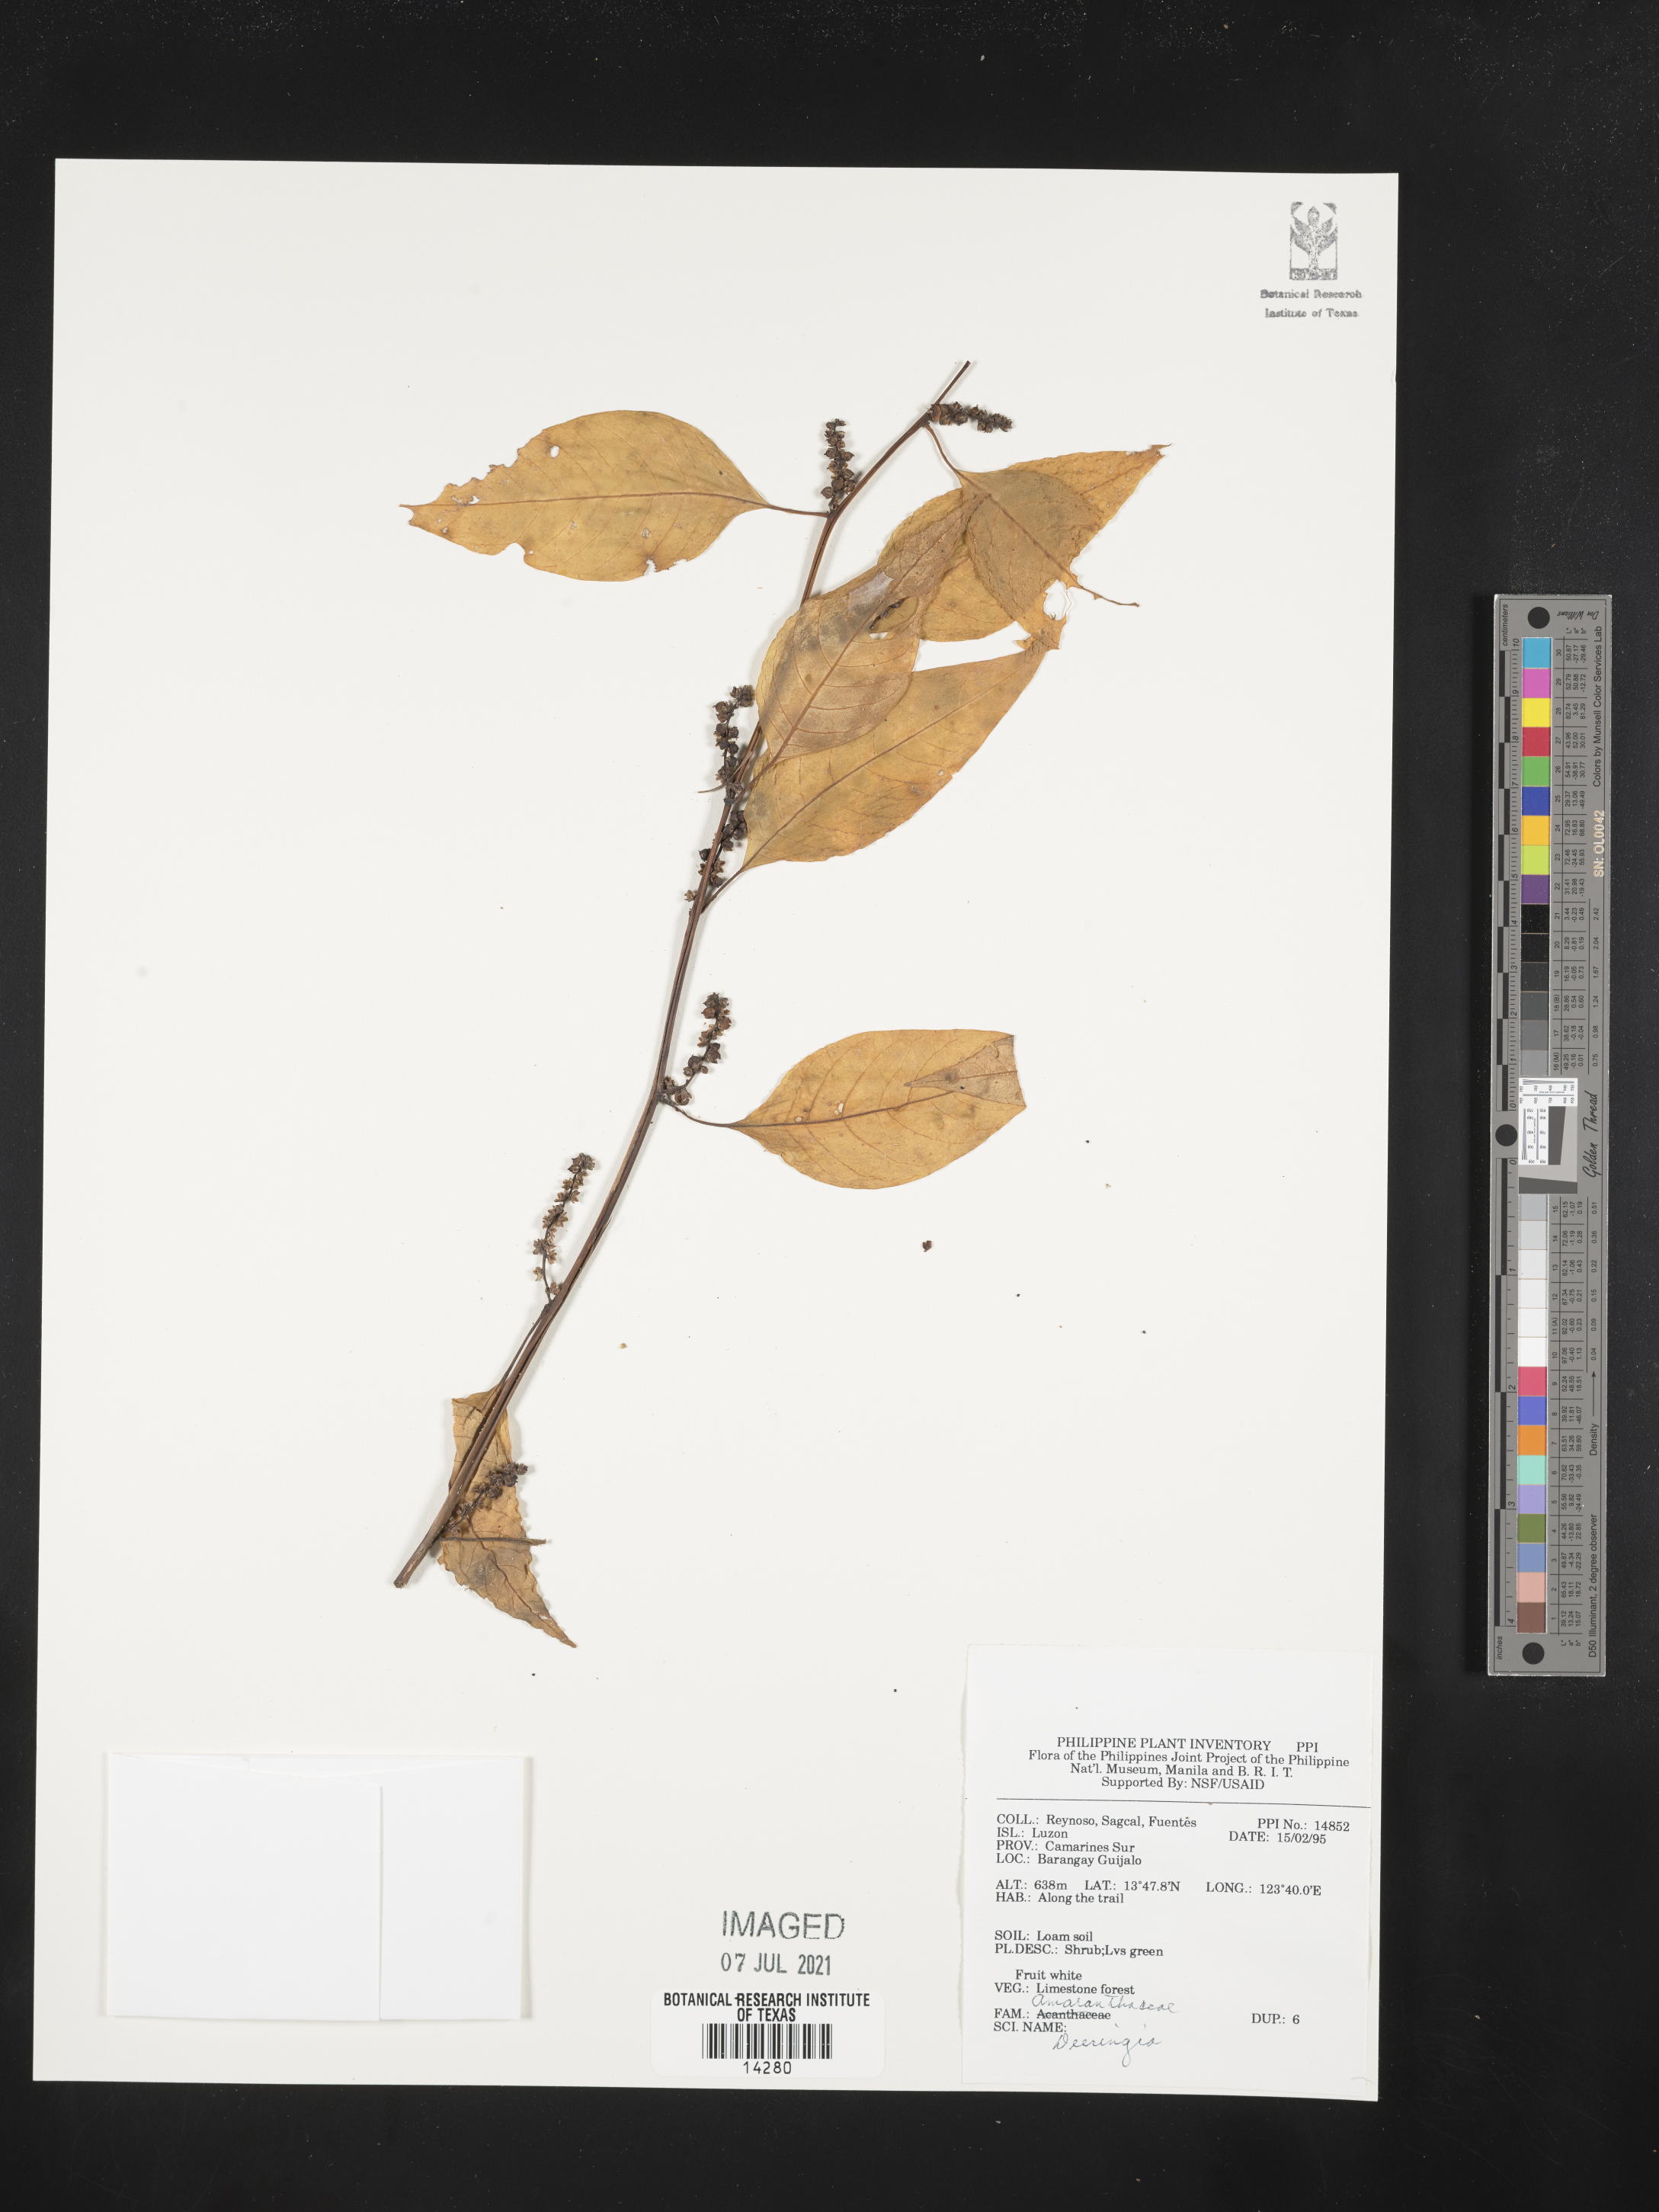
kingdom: Plantae
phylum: Tracheophyta
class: Magnoliopsida
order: Caryophyllales
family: Amaranthaceae
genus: Deeringia
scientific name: Deeringia
